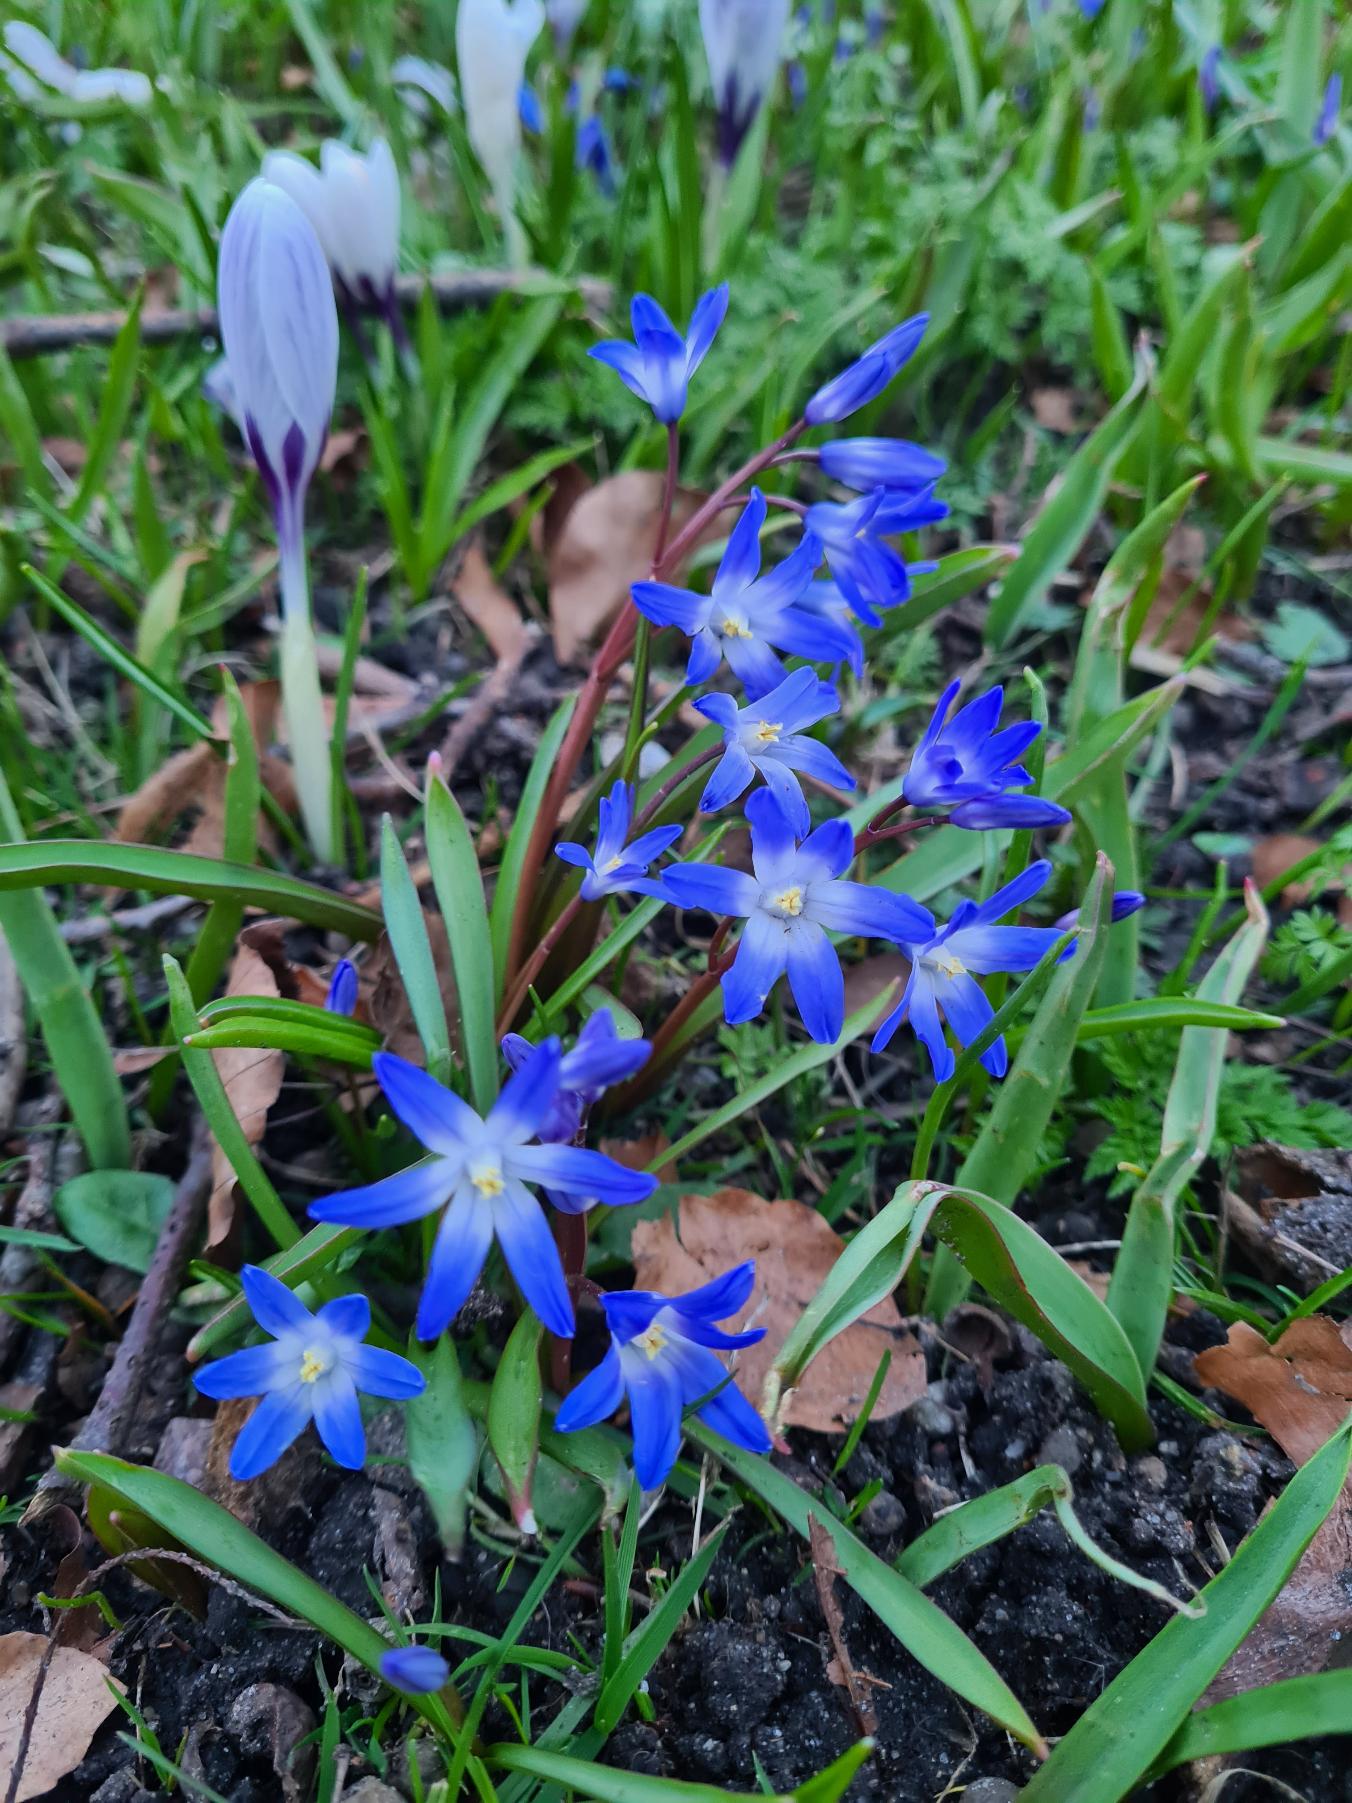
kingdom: Plantae
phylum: Tracheophyta
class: Liliopsida
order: Asparagales
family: Asparagaceae
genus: Scilla
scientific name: Scilla forbesii
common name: Almindelig snepryd
